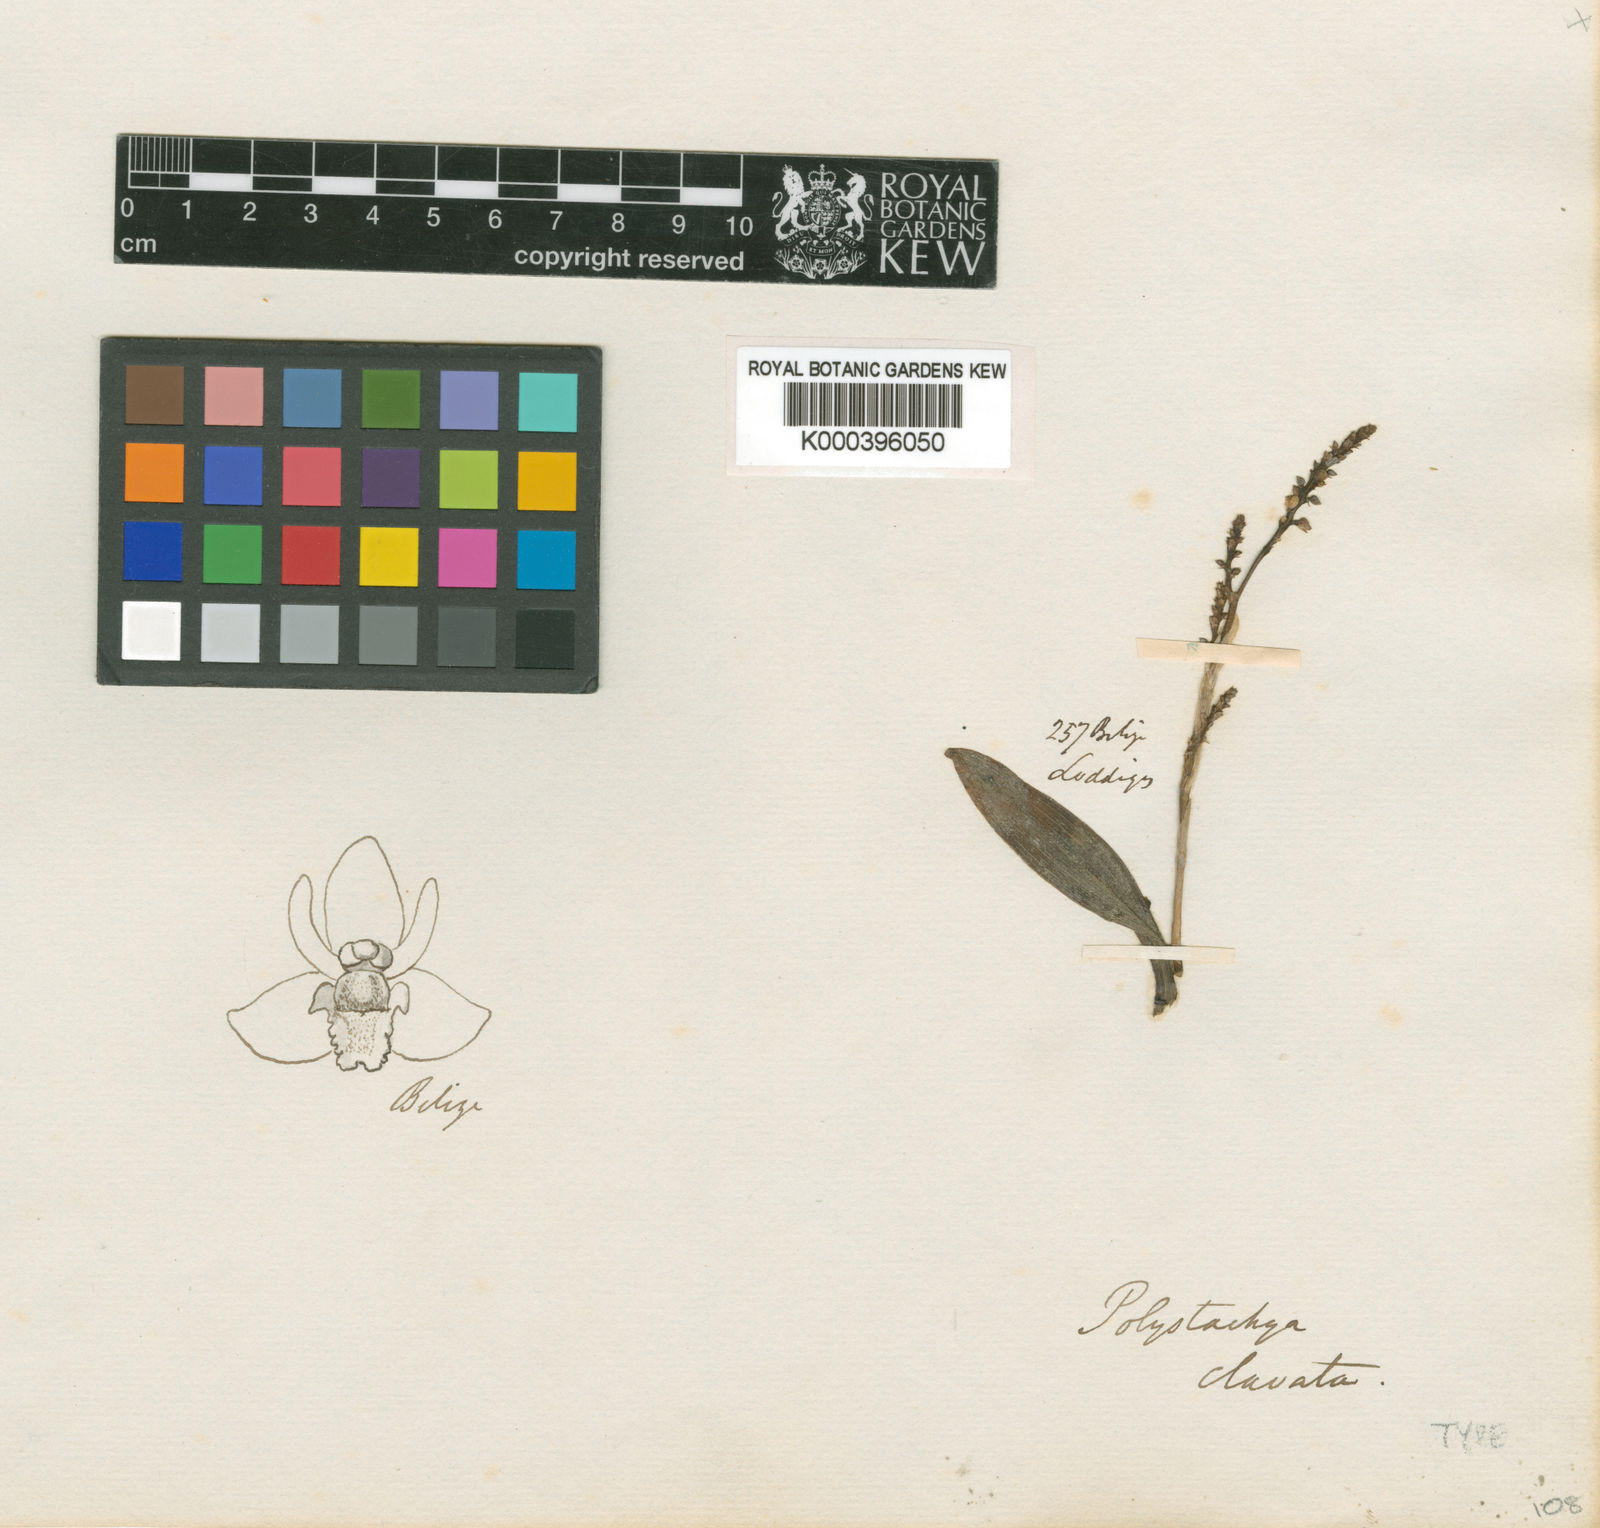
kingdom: Plantae
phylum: Tracheophyta
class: Liliopsida
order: Asparagales
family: Orchidaceae
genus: Polystachya
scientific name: Polystachya clavata
